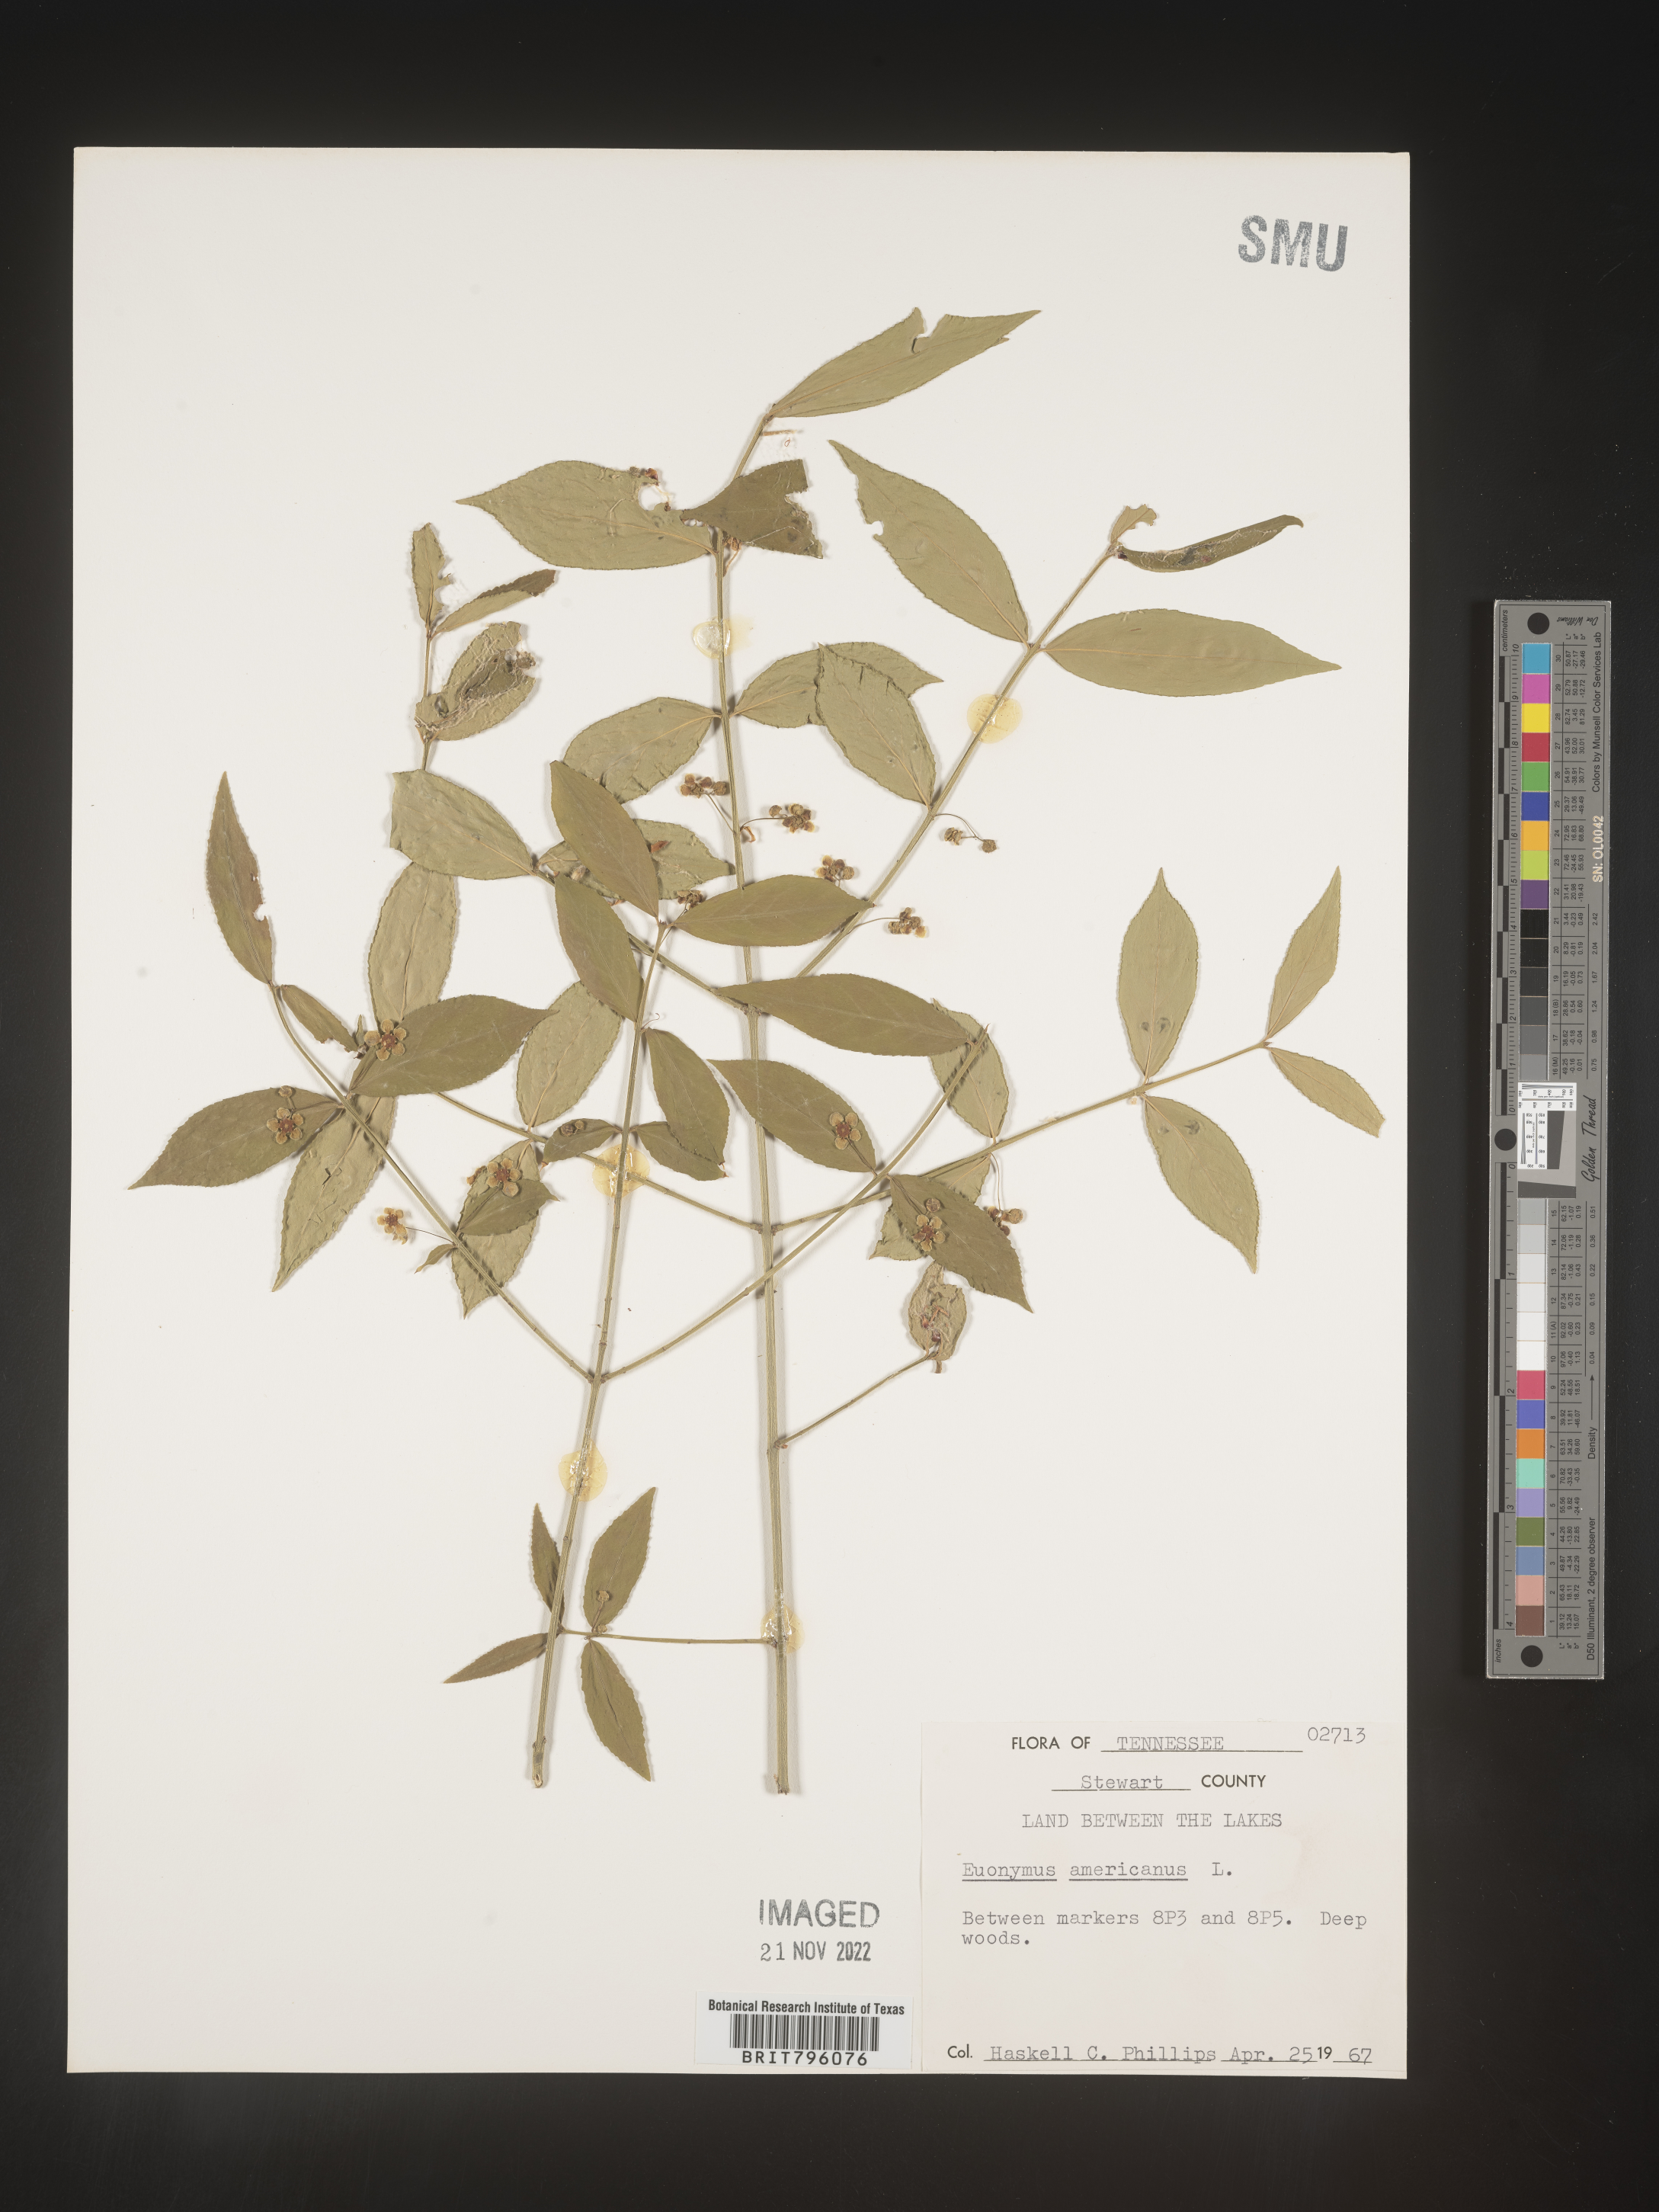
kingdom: Plantae
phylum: Tracheophyta
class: Magnoliopsida
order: Celastrales
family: Celastraceae
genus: Euonymus
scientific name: Euonymus americanus
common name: Bursting-heart
